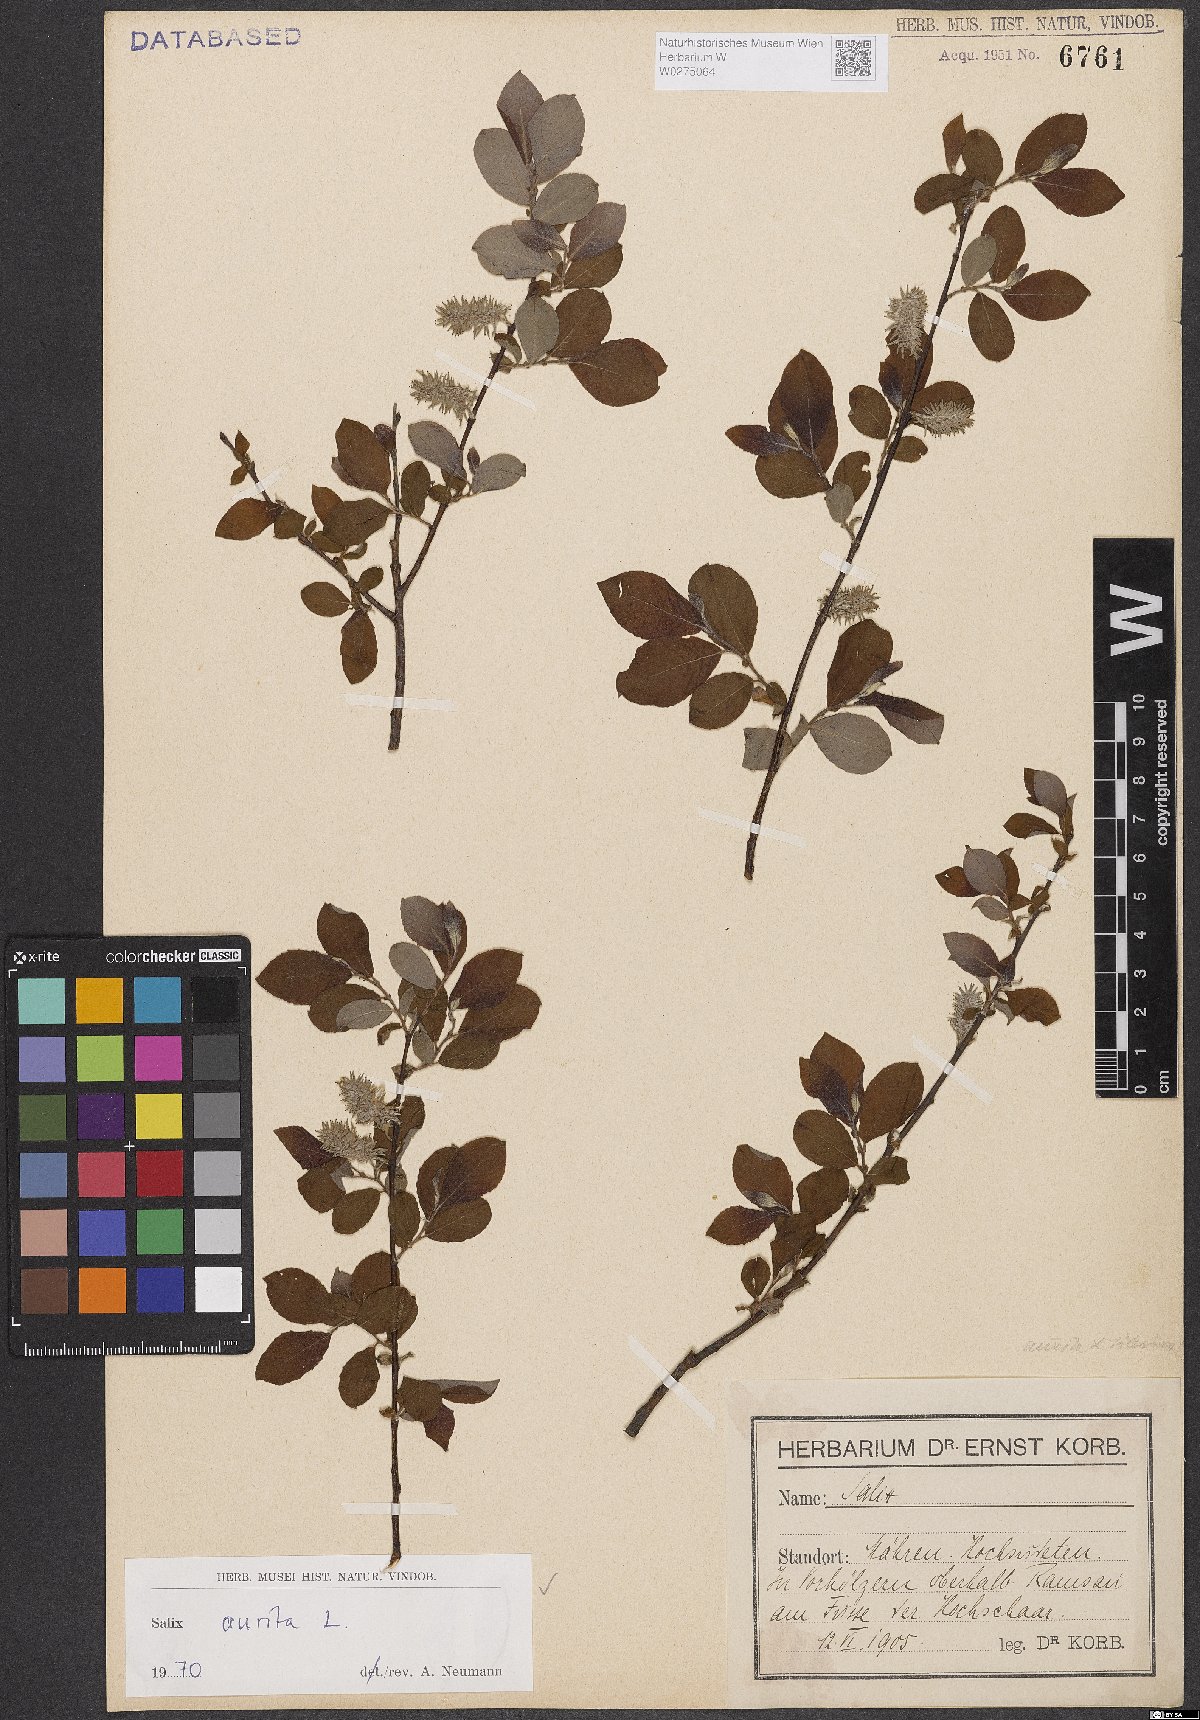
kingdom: Plantae
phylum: Tracheophyta
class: Magnoliopsida
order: Malpighiales
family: Salicaceae
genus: Salix
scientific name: Salix aurita
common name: Eared willow
